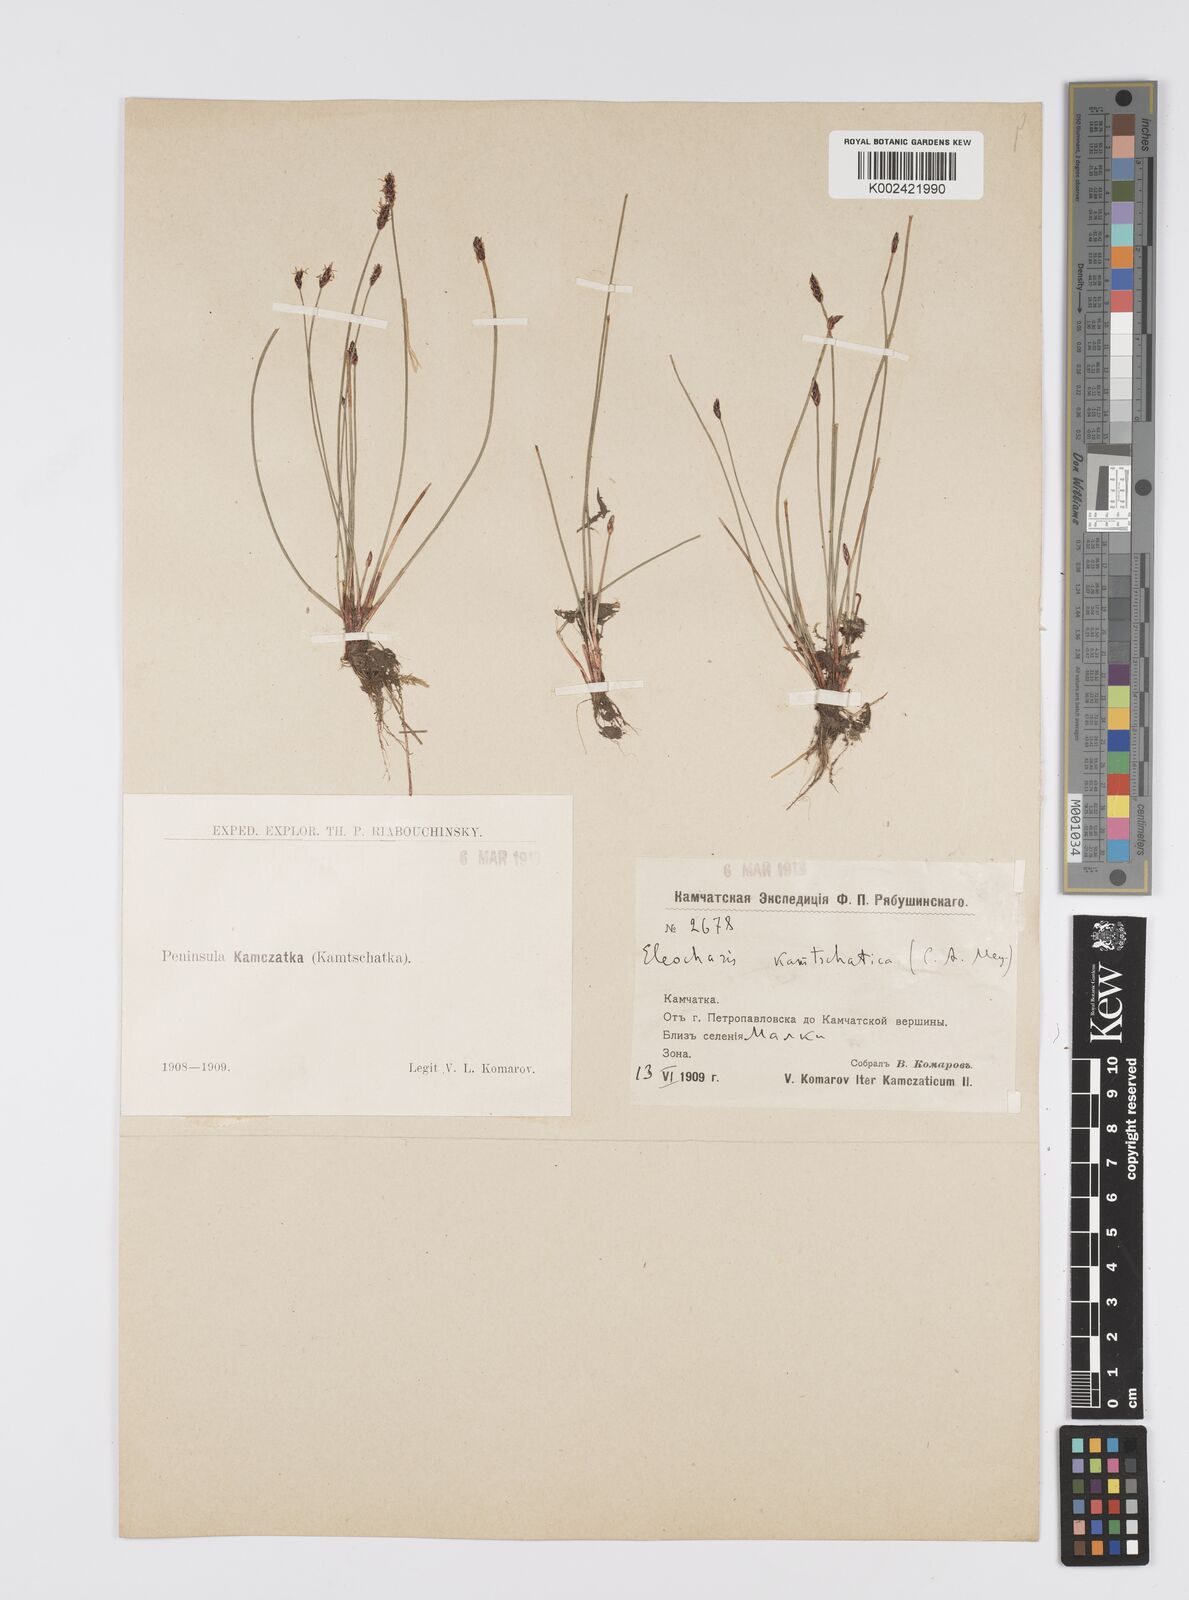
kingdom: Plantae
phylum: Tracheophyta
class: Liliopsida
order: Poales
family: Cyperaceae
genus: Eleocharis
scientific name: Eleocharis kamtschatica
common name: Kamchatka spikerush
